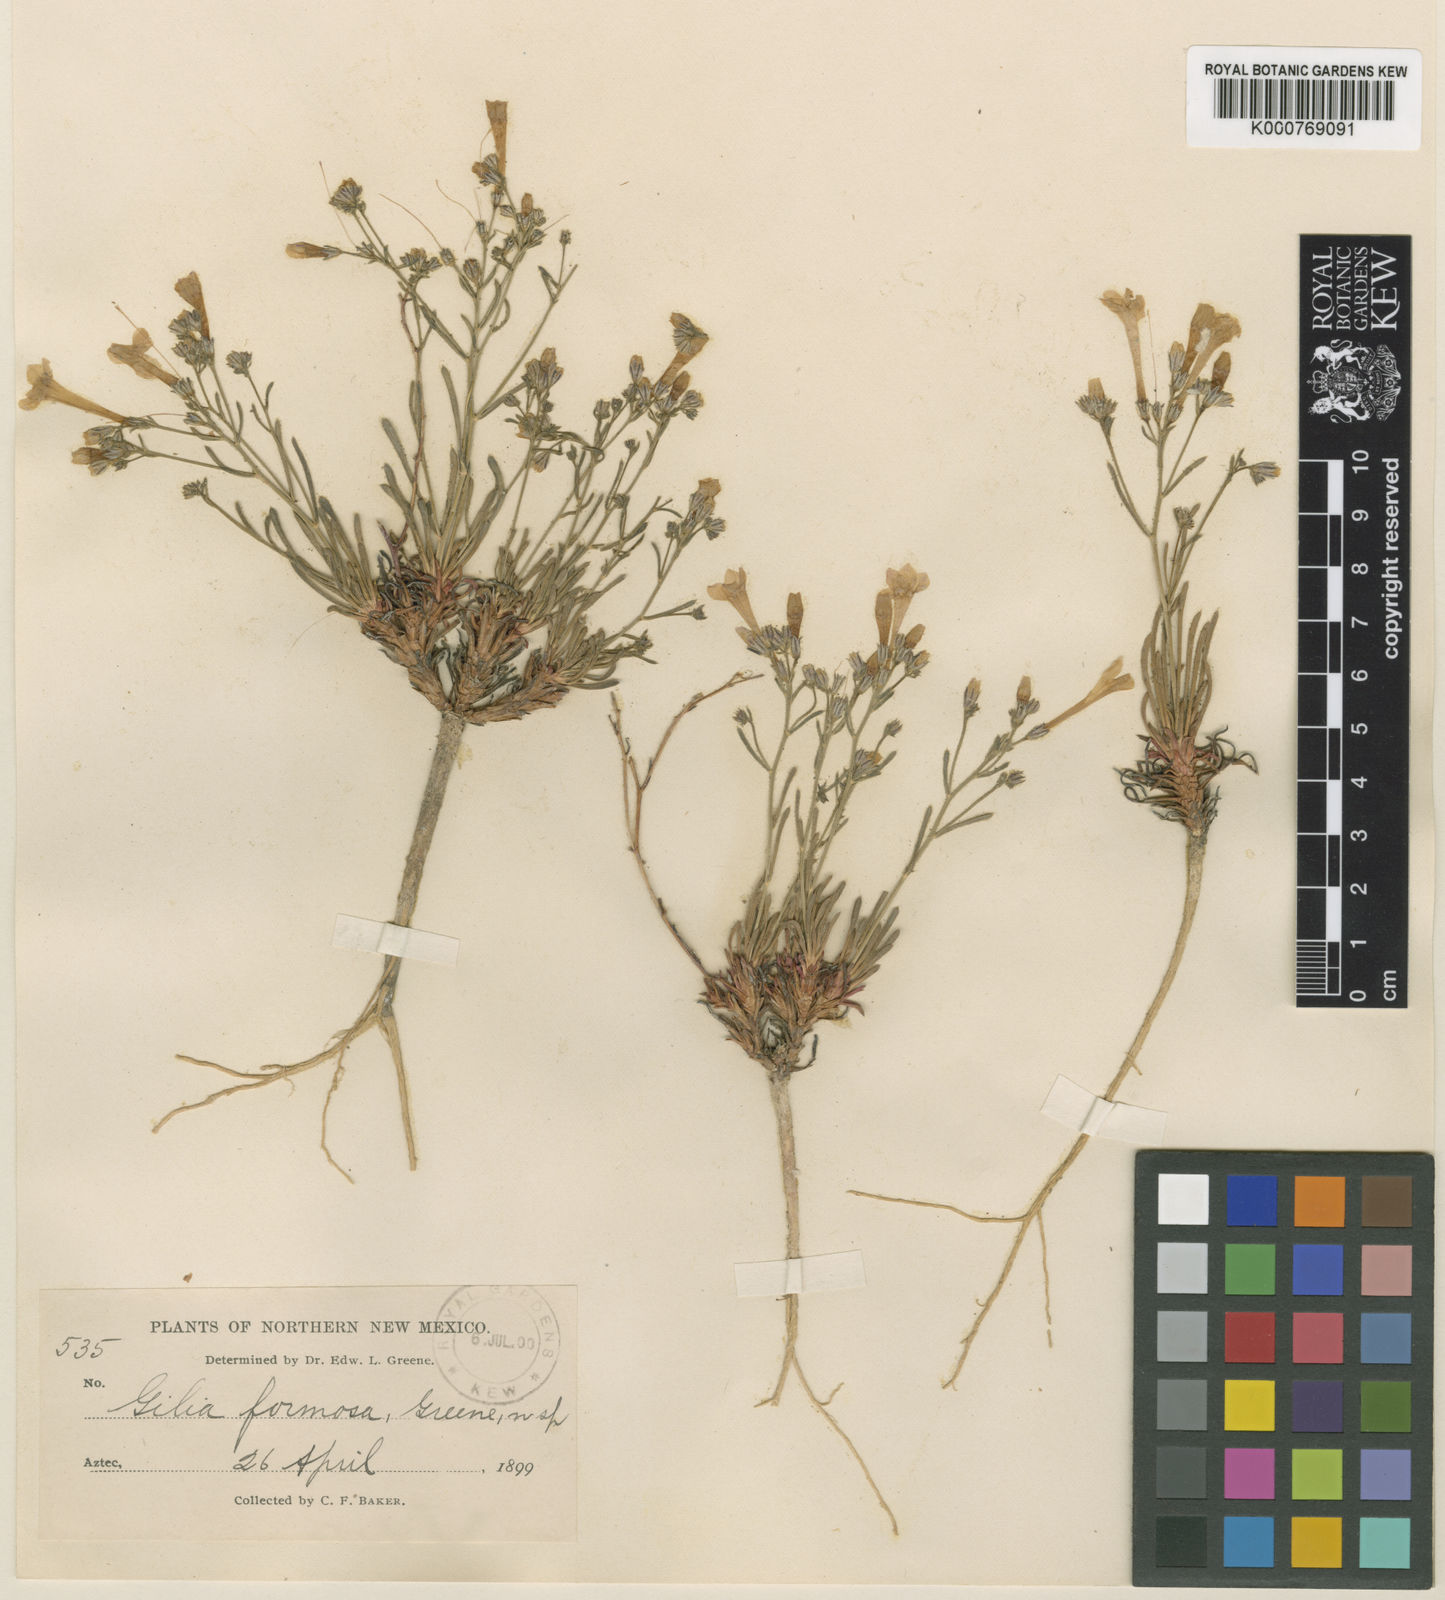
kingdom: Plantae
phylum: Tracheophyta
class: Magnoliopsida
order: Ericales
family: Polemoniaceae
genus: Aliciella
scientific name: Aliciella formosa
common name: Aztec gilia
